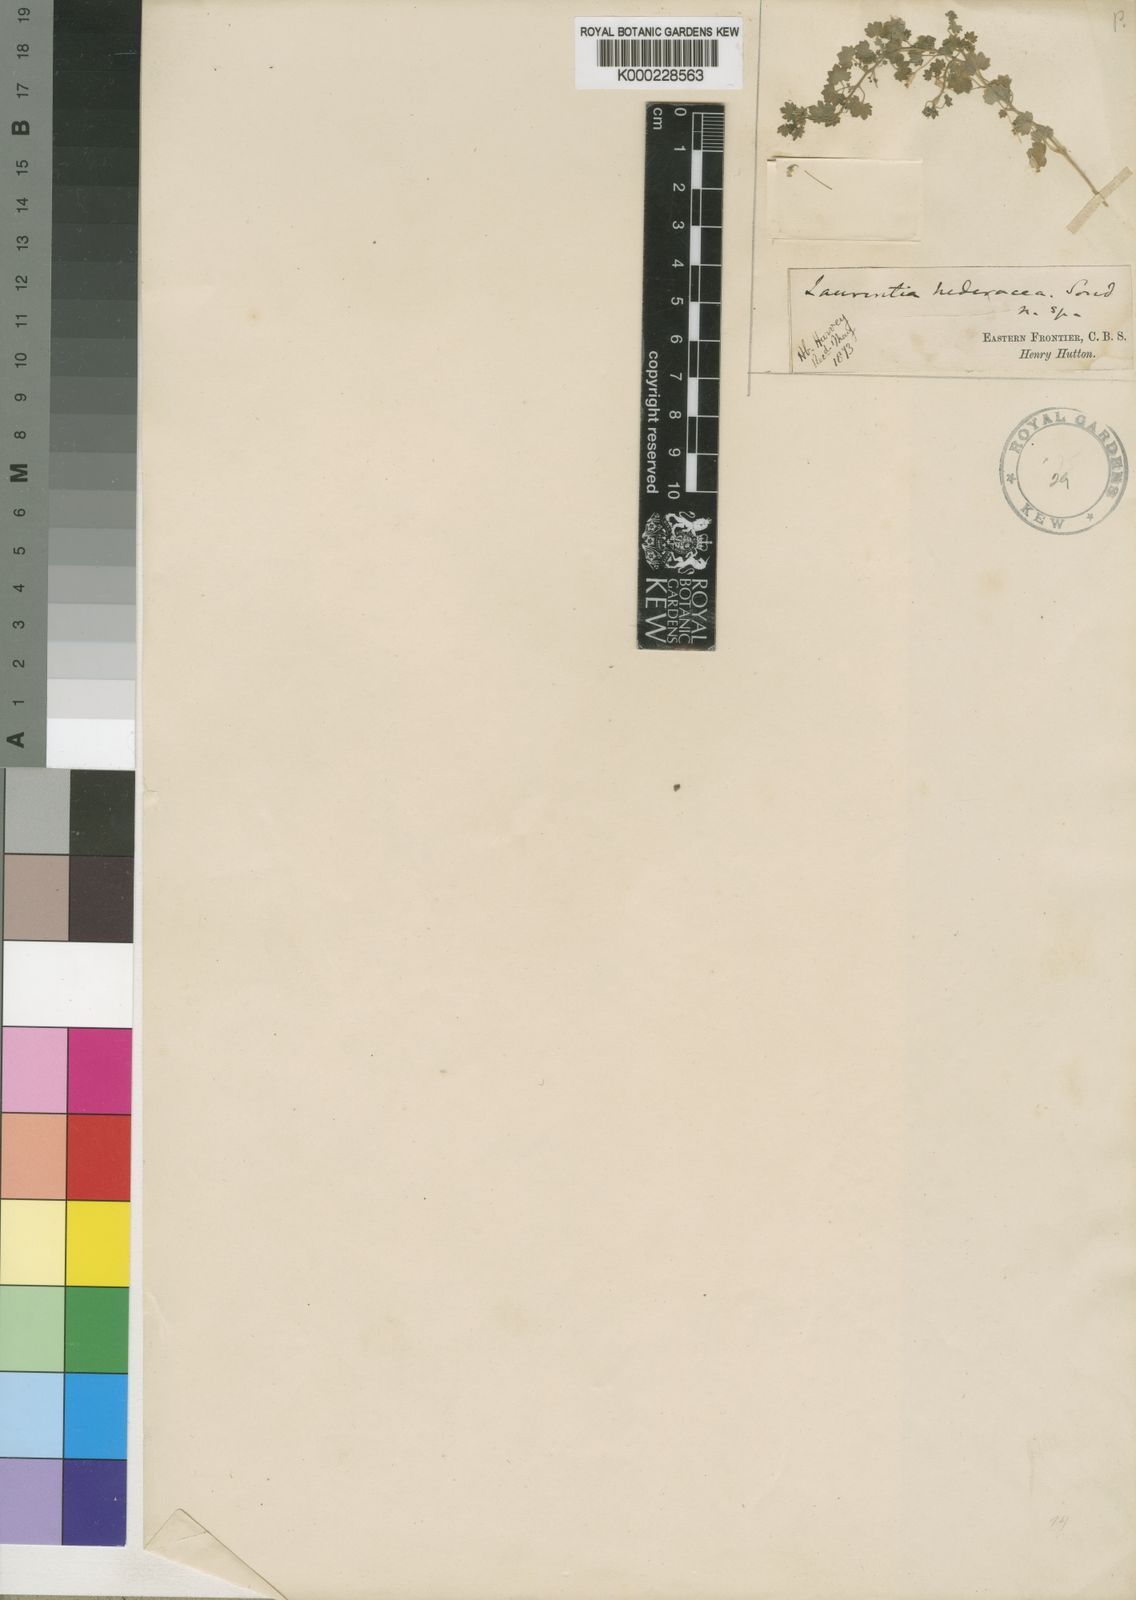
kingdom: Plantae
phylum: Tracheophyta
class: Magnoliopsida
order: Asterales
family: Campanulaceae
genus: Wimmerella
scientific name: Wimmerella
